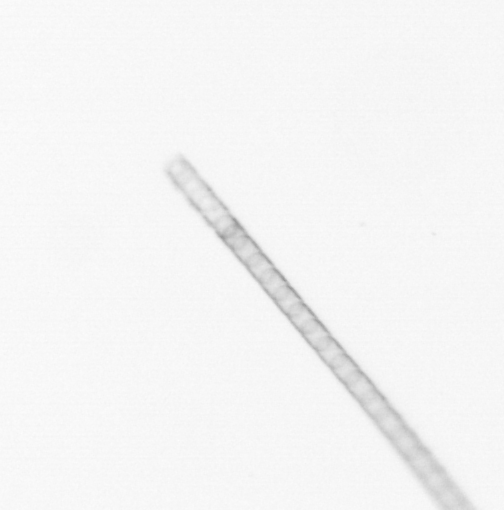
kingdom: Chromista
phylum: Ochrophyta
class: Bacillariophyceae
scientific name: Bacillariophyceae
